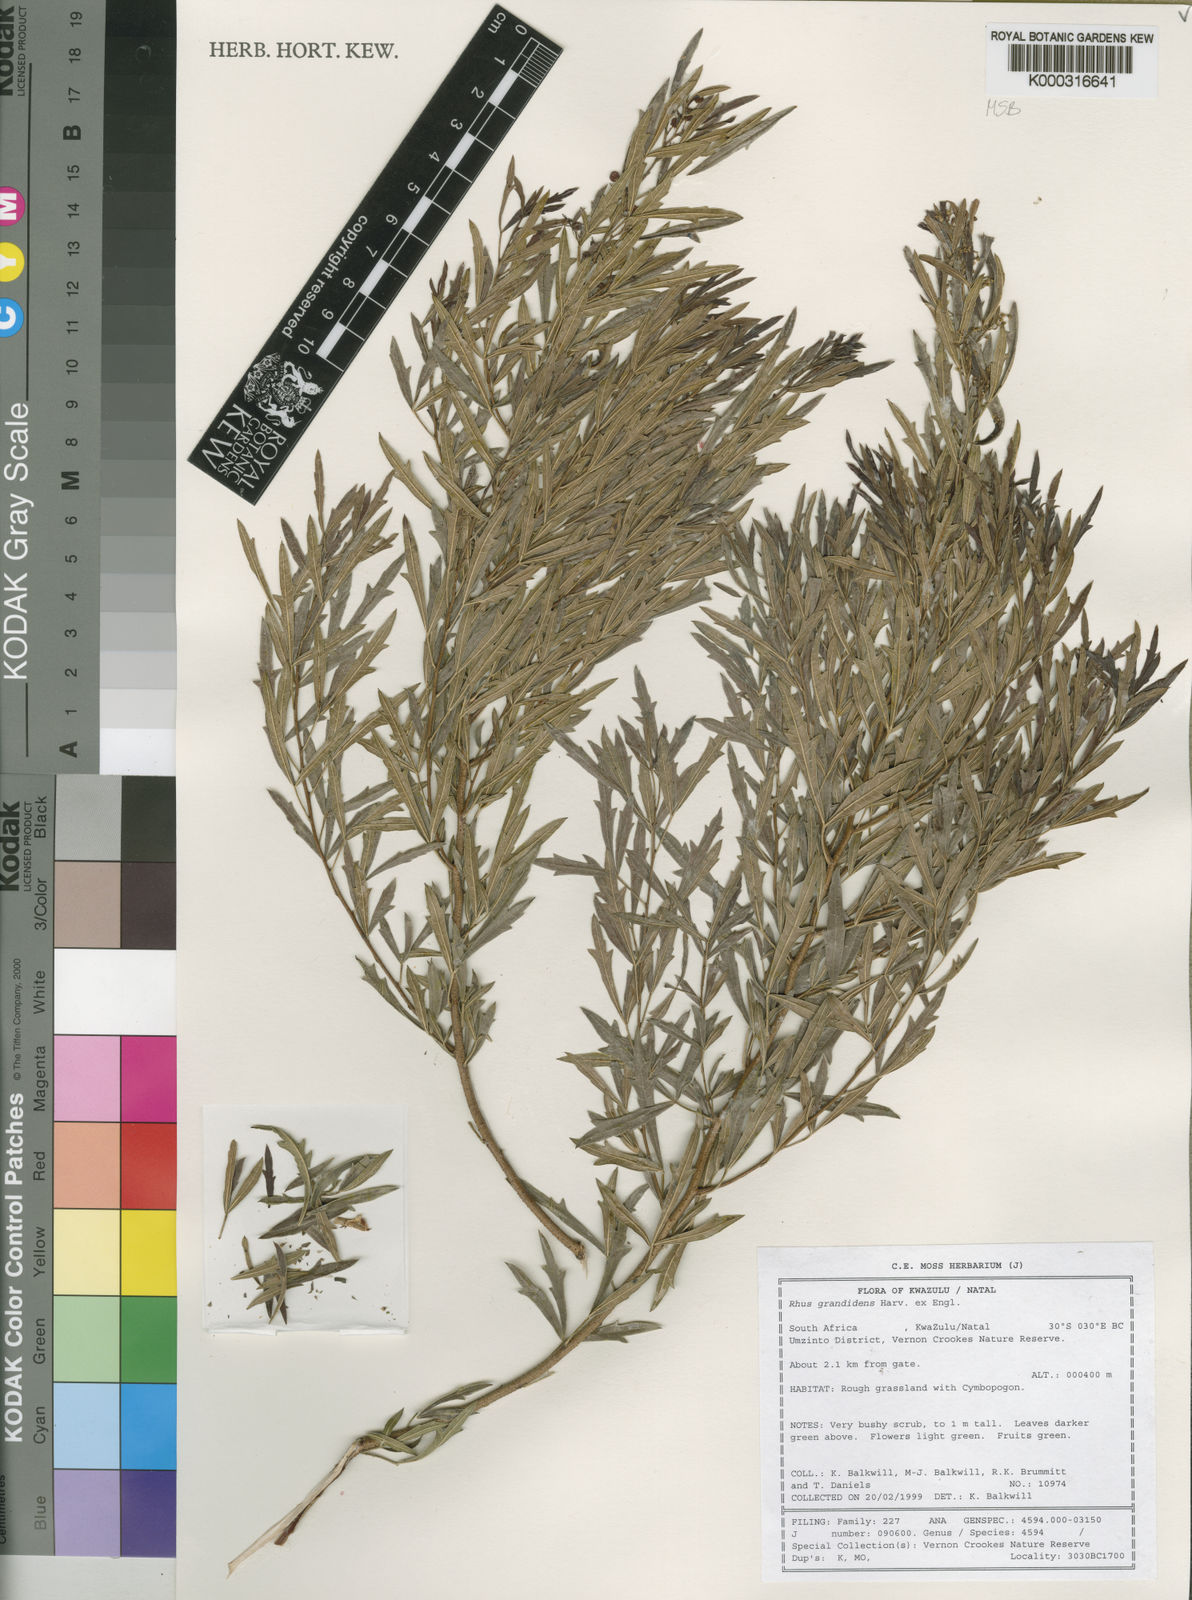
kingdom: Plantae
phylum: Tracheophyta
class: Magnoliopsida
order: Sapindales
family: Anacardiaceae
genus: Searsia
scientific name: Searsia grandidens
